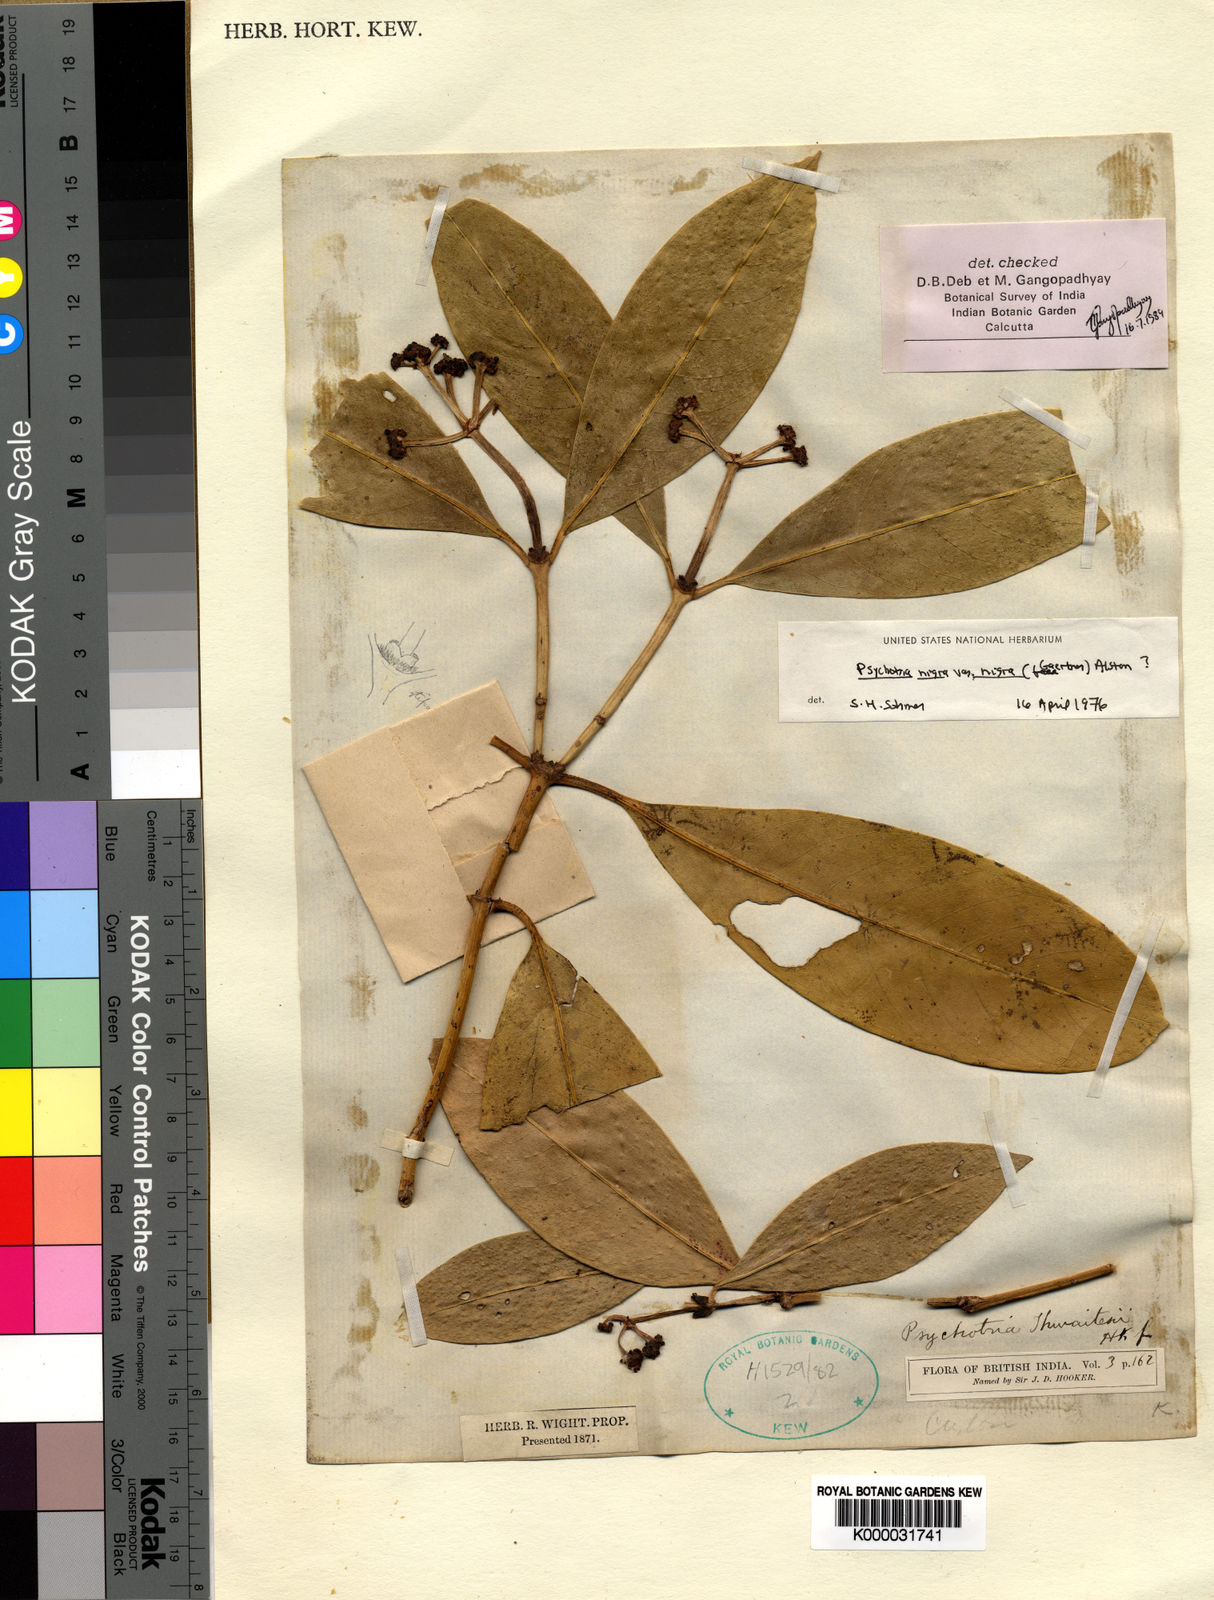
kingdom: Plantae
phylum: Tracheophyta
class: Magnoliopsida
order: Gentianales
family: Rubiaceae
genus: Psychotria
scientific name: Psychotria nigra
